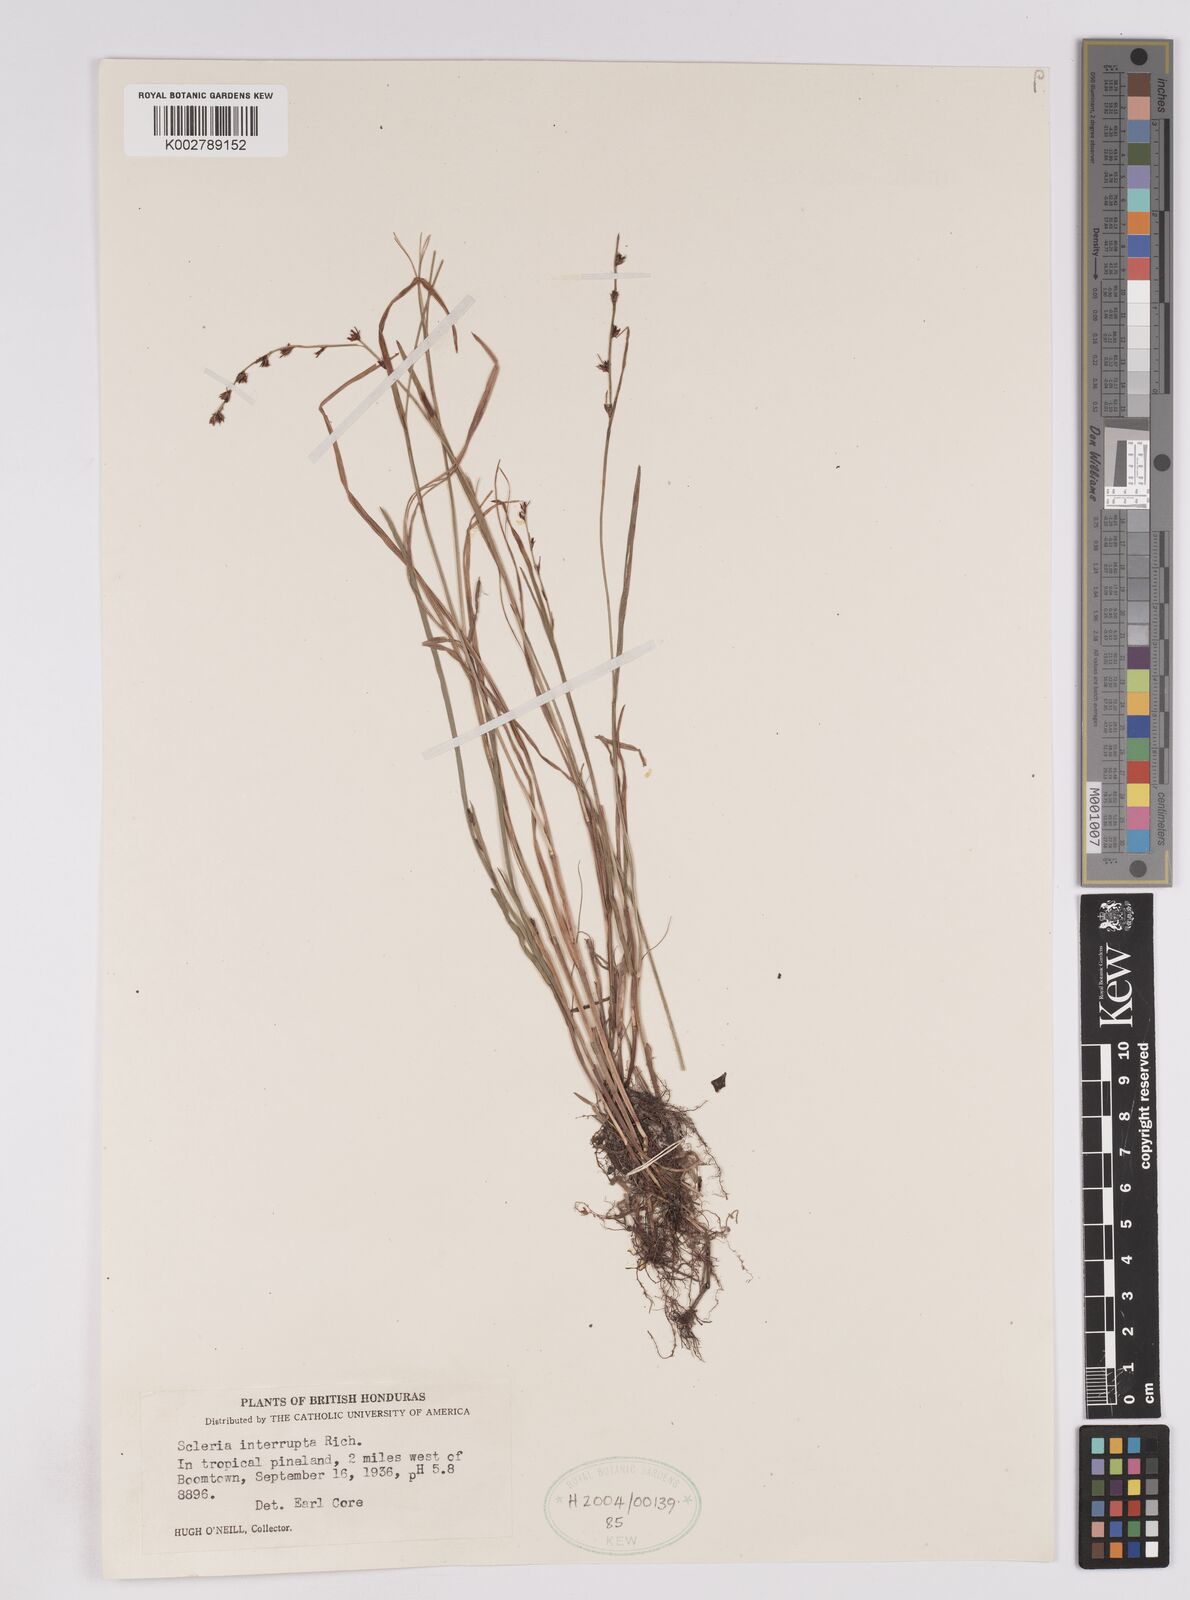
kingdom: Plantae
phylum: Tracheophyta
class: Liliopsida
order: Poales
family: Cyperaceae
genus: Scleria
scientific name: Scleria interrupta
